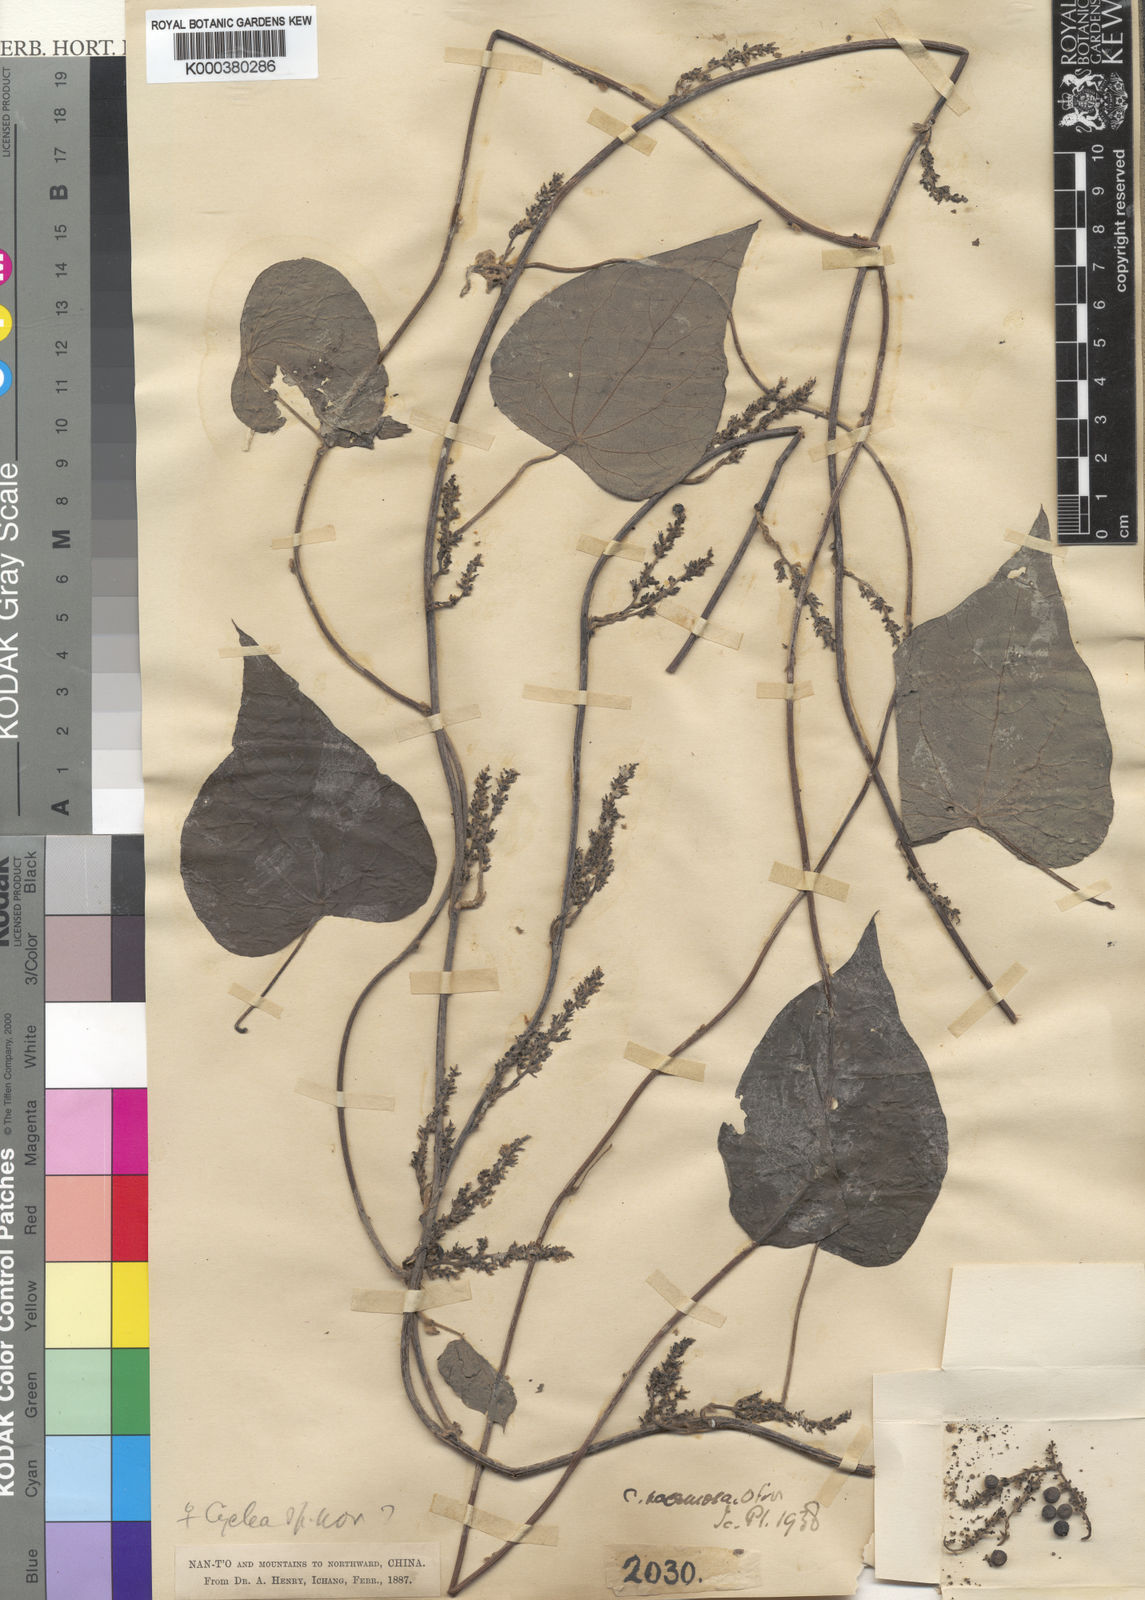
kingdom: Plantae
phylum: Tracheophyta
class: Magnoliopsida
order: Ranunculales
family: Menispermaceae
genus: Cyclea
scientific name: Cyclea racemosa
